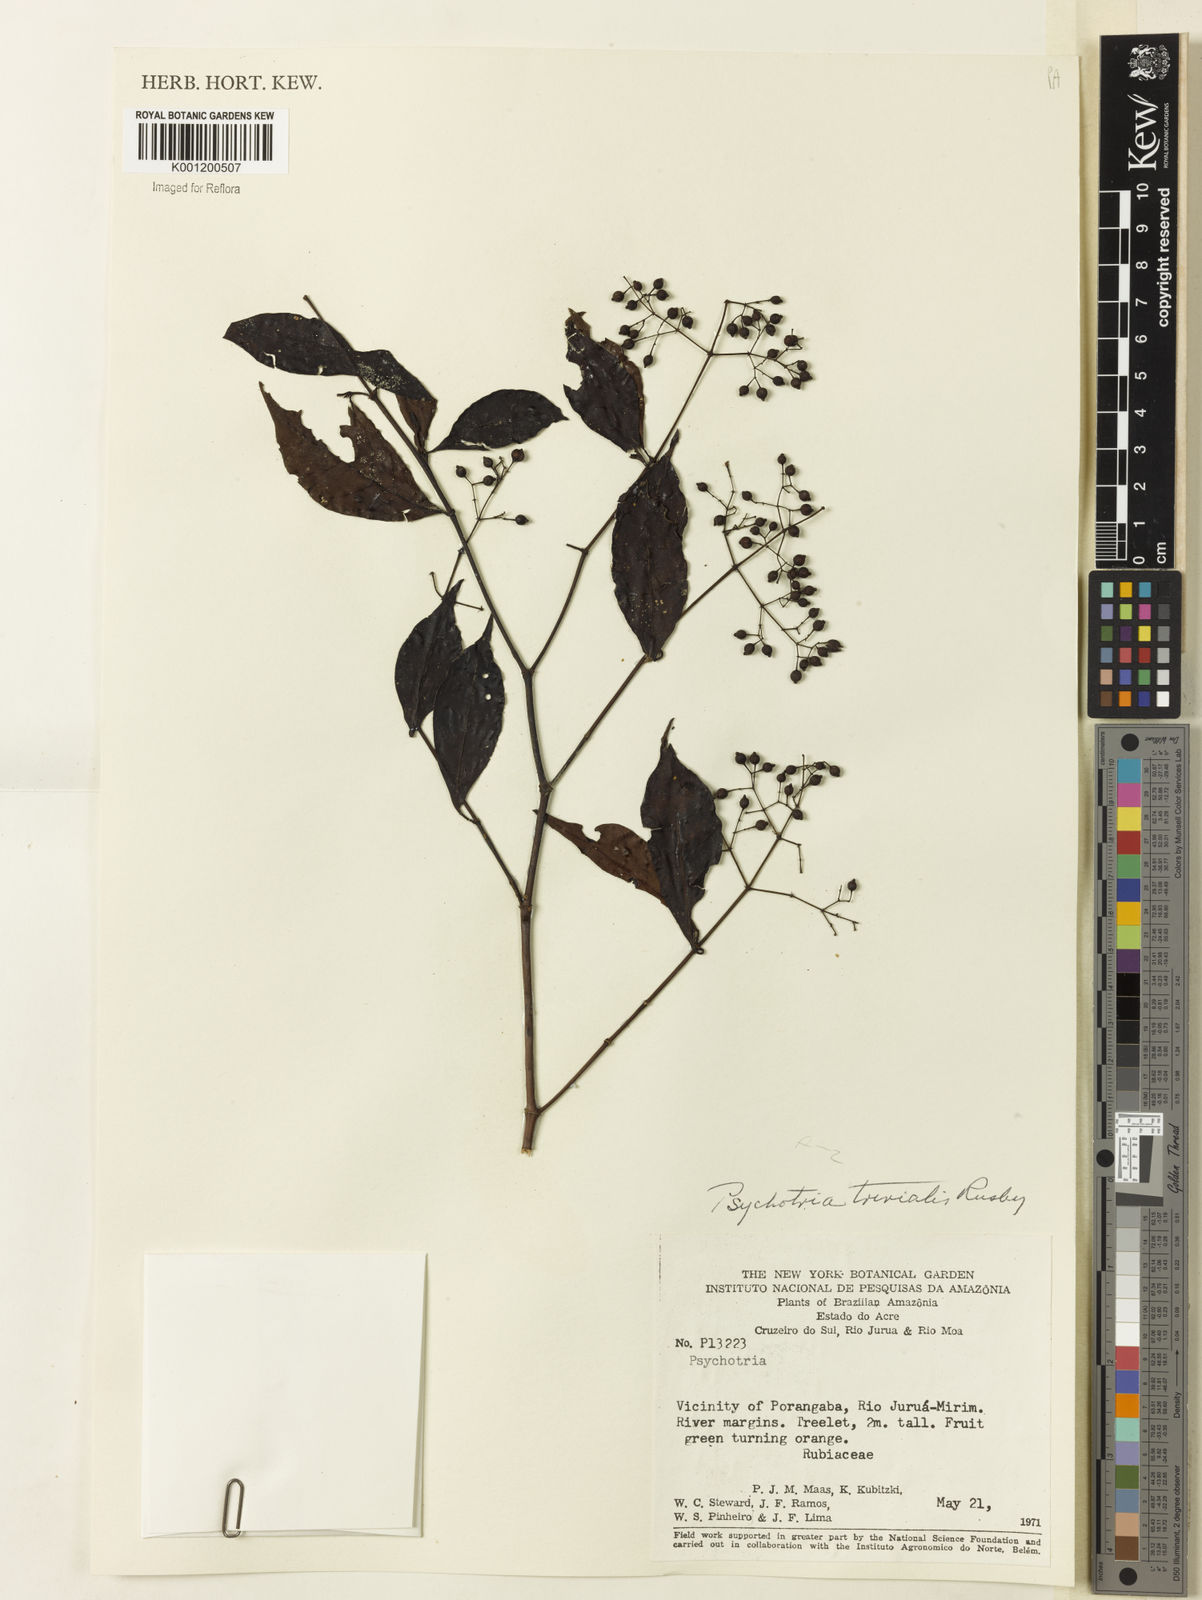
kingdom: Plantae
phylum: Tracheophyta
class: Magnoliopsida
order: Gentianales
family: Rubiaceae
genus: Psychotria
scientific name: Psychotria trivialis
